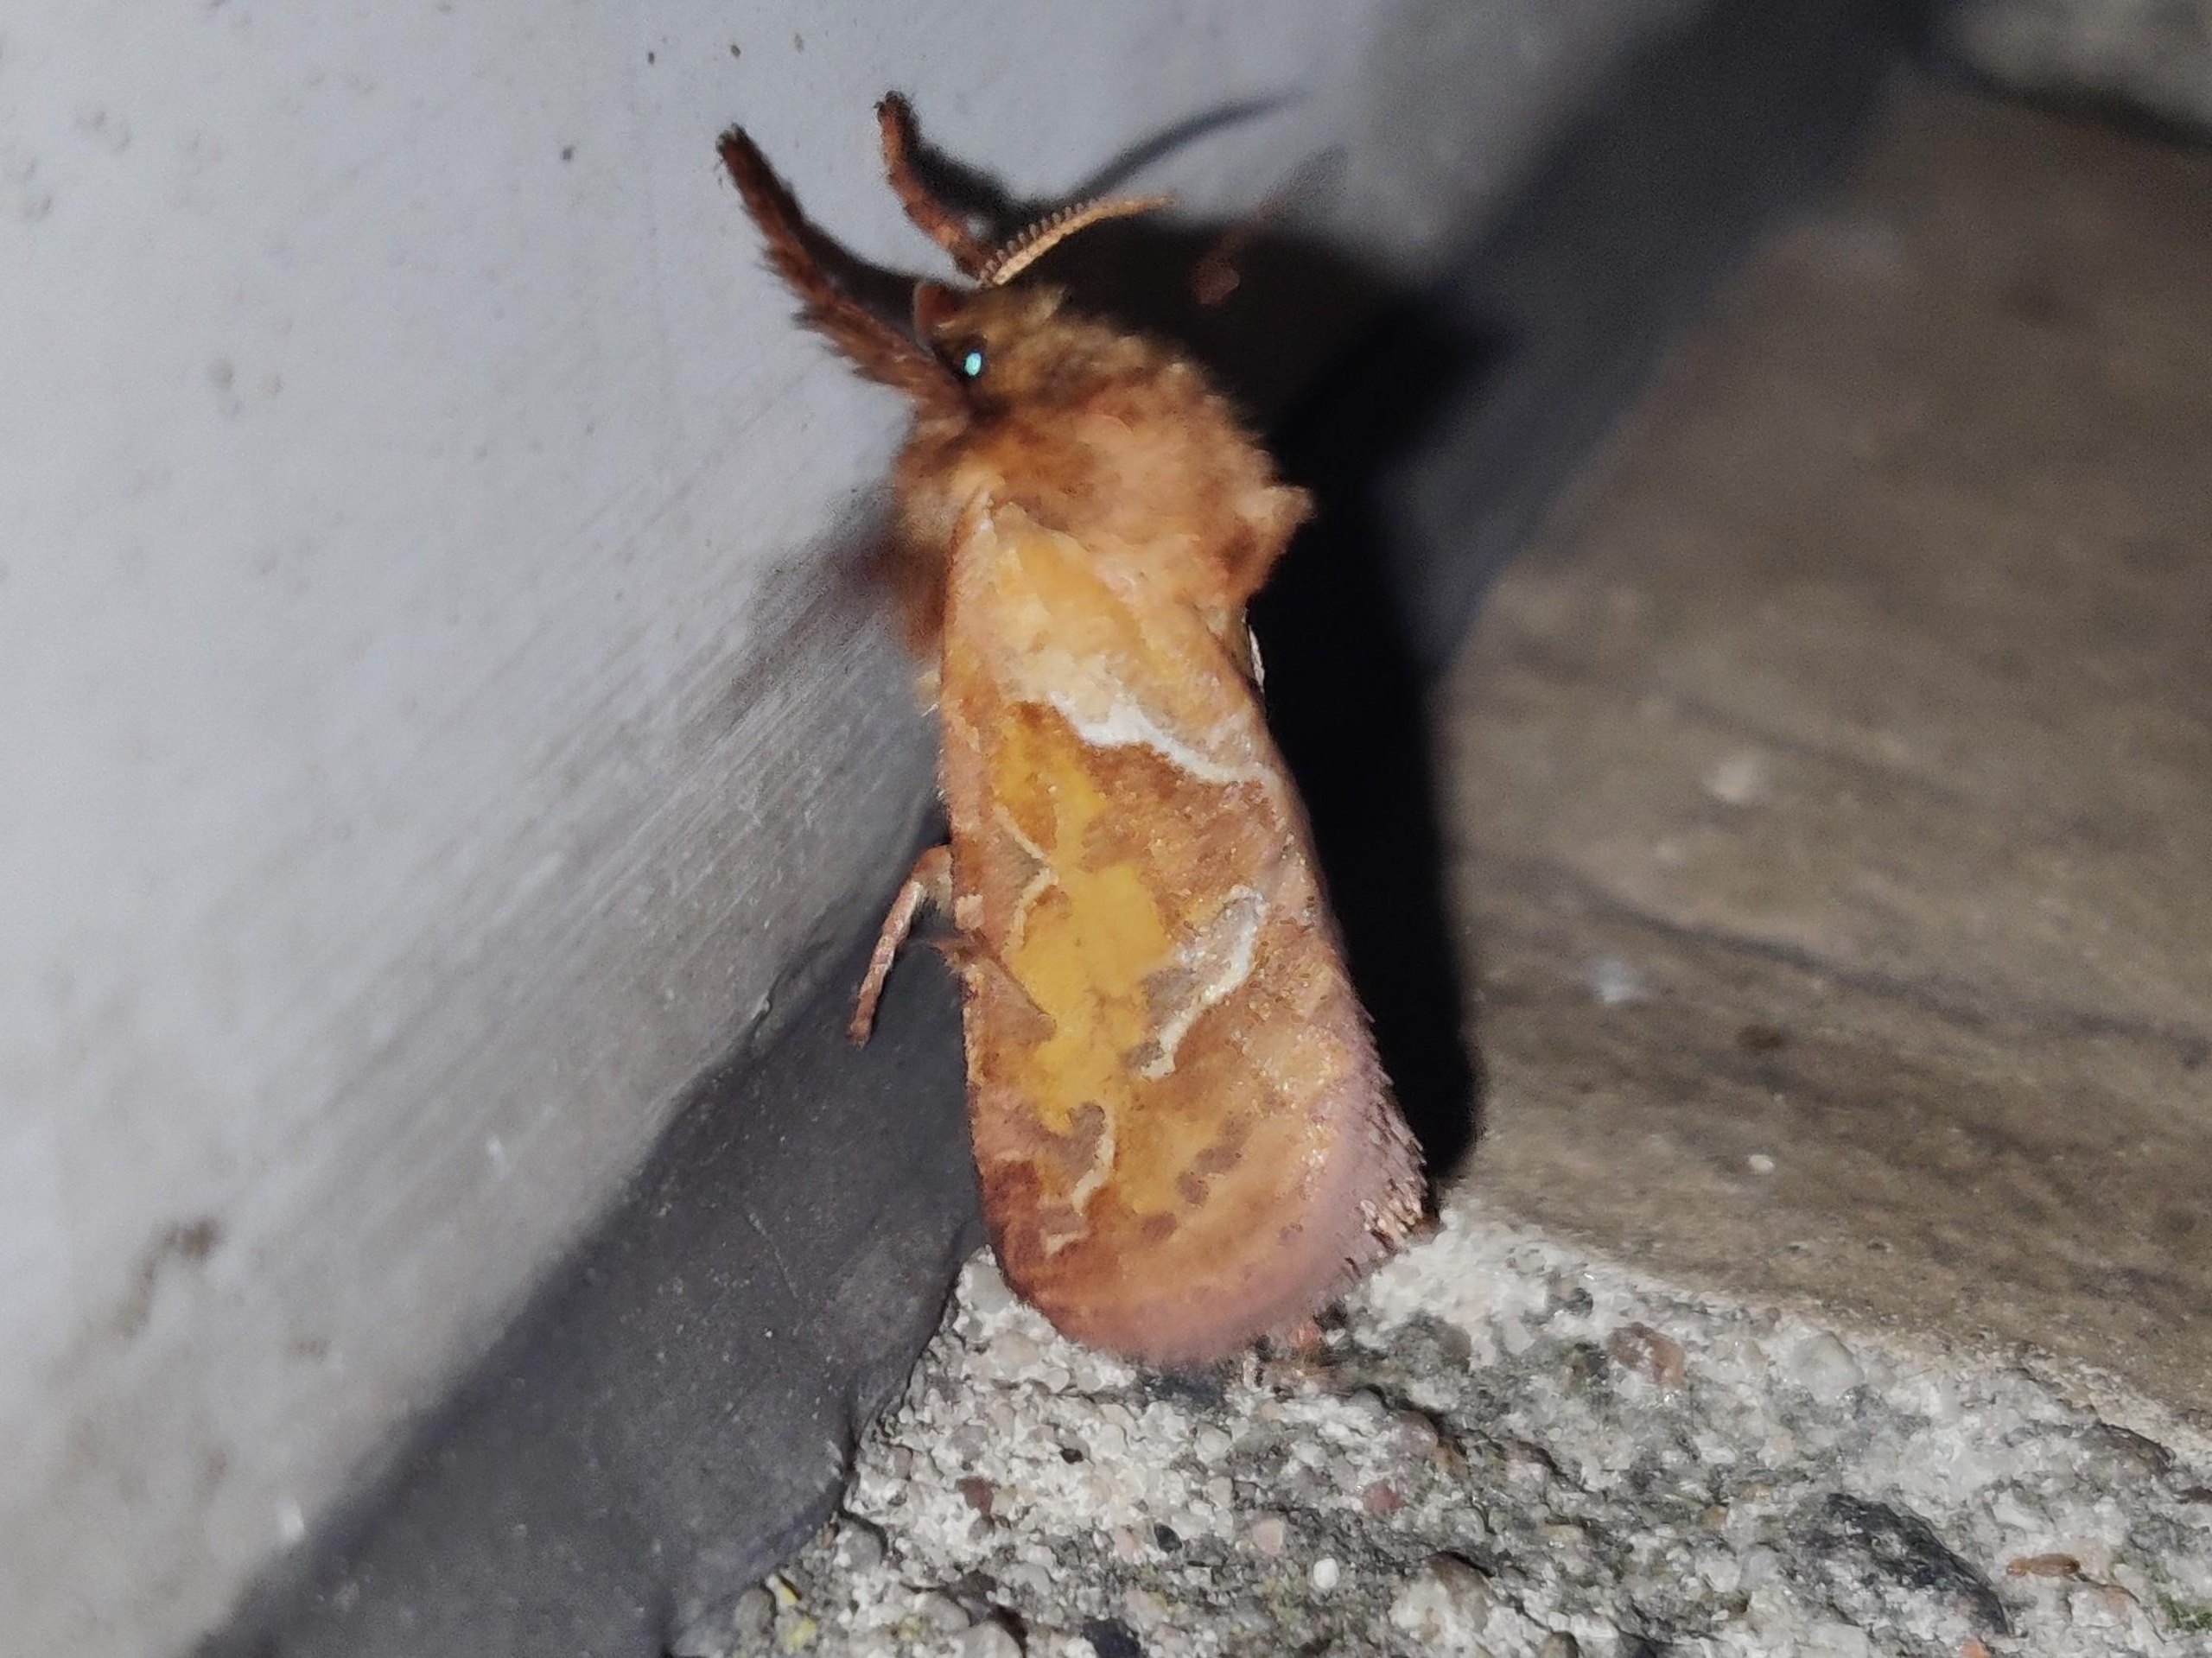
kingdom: Animalia
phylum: Arthropoda
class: Insecta
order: Lepidoptera
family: Hepialidae
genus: Triodia
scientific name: Triodia sylvina
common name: Skræpperodæder
